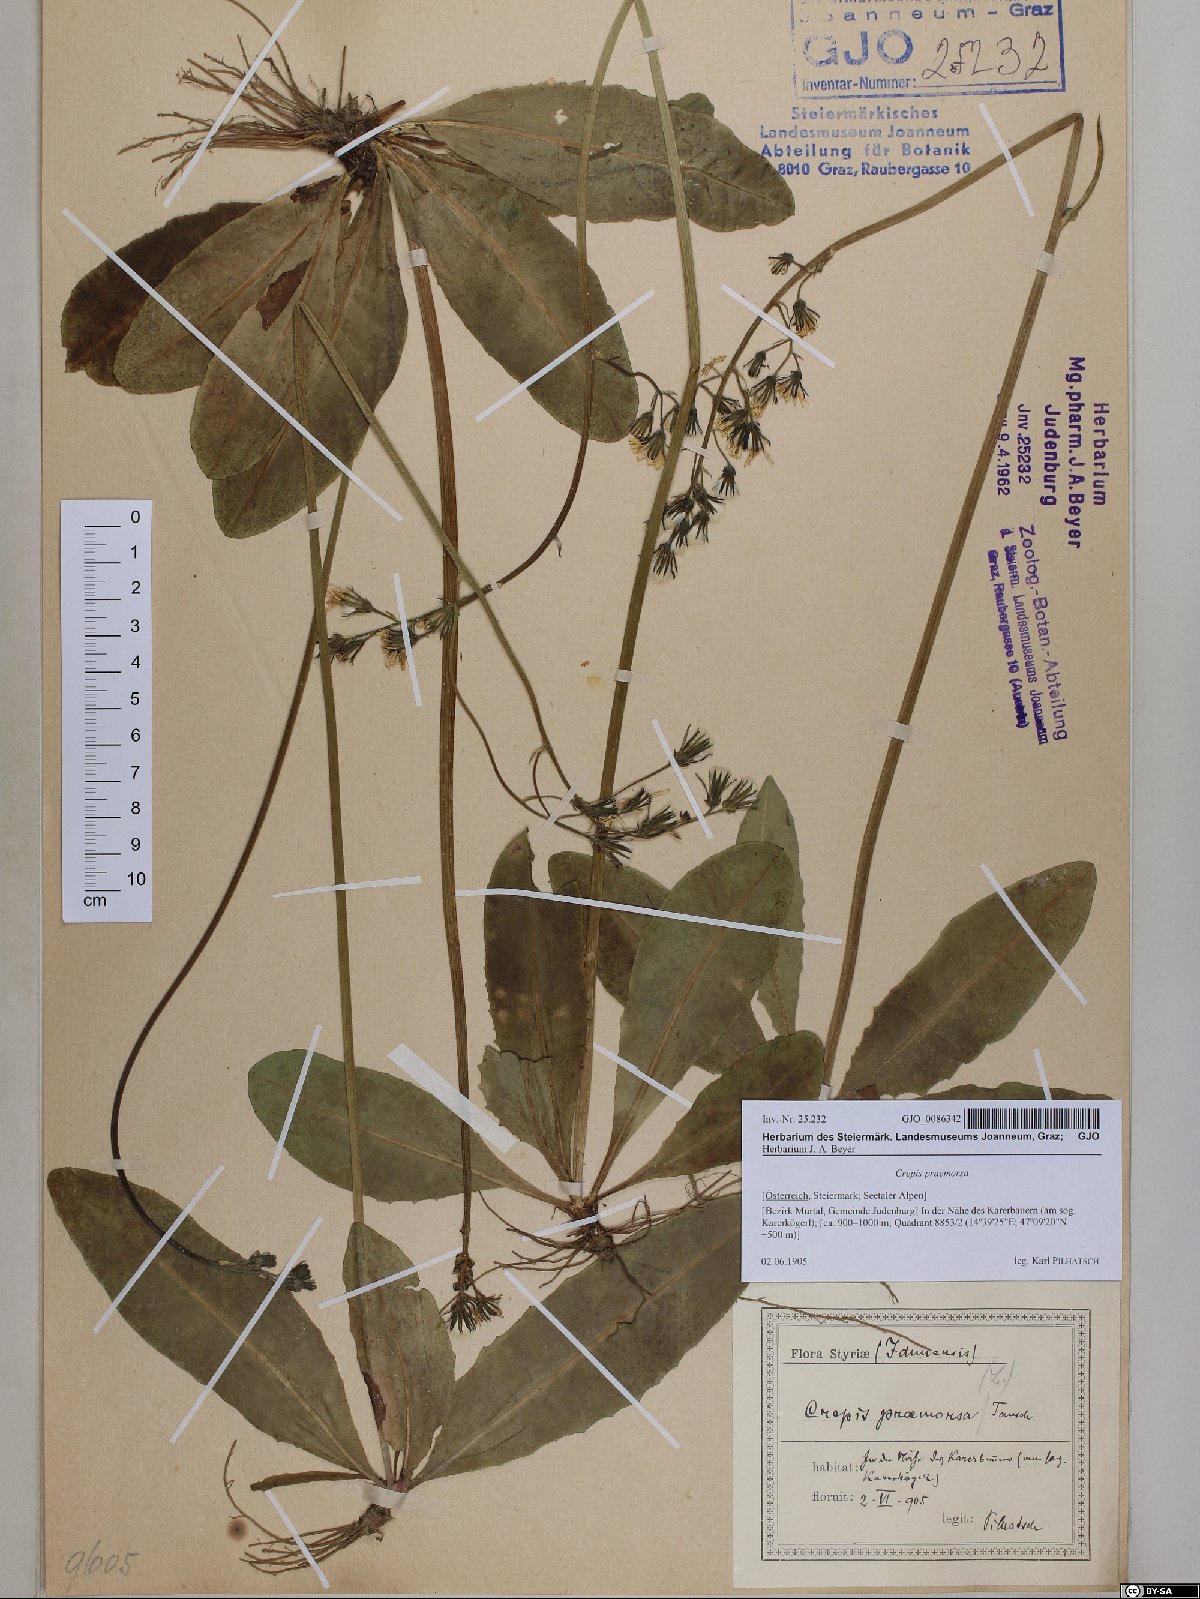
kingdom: Plantae
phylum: Tracheophyta
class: Magnoliopsida
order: Asterales
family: Asteraceae
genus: Crepis
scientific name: Crepis praemorsa
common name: Leafless hawk's-beard
